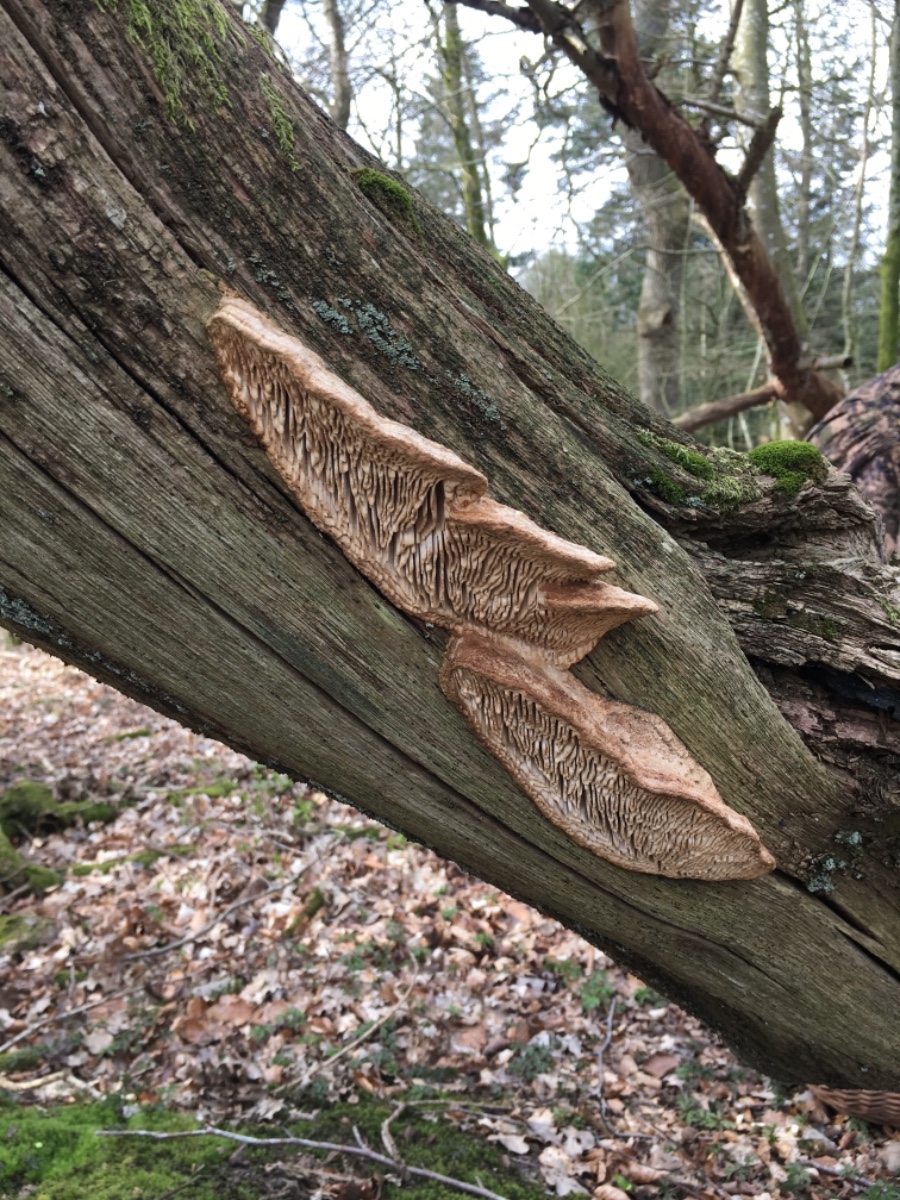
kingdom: Fungi
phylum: Basidiomycota
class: Agaricomycetes
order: Polyporales
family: Fomitopsidaceae
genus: Daedalea
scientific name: Daedalea quercina
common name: ege-labyrintsvamp
